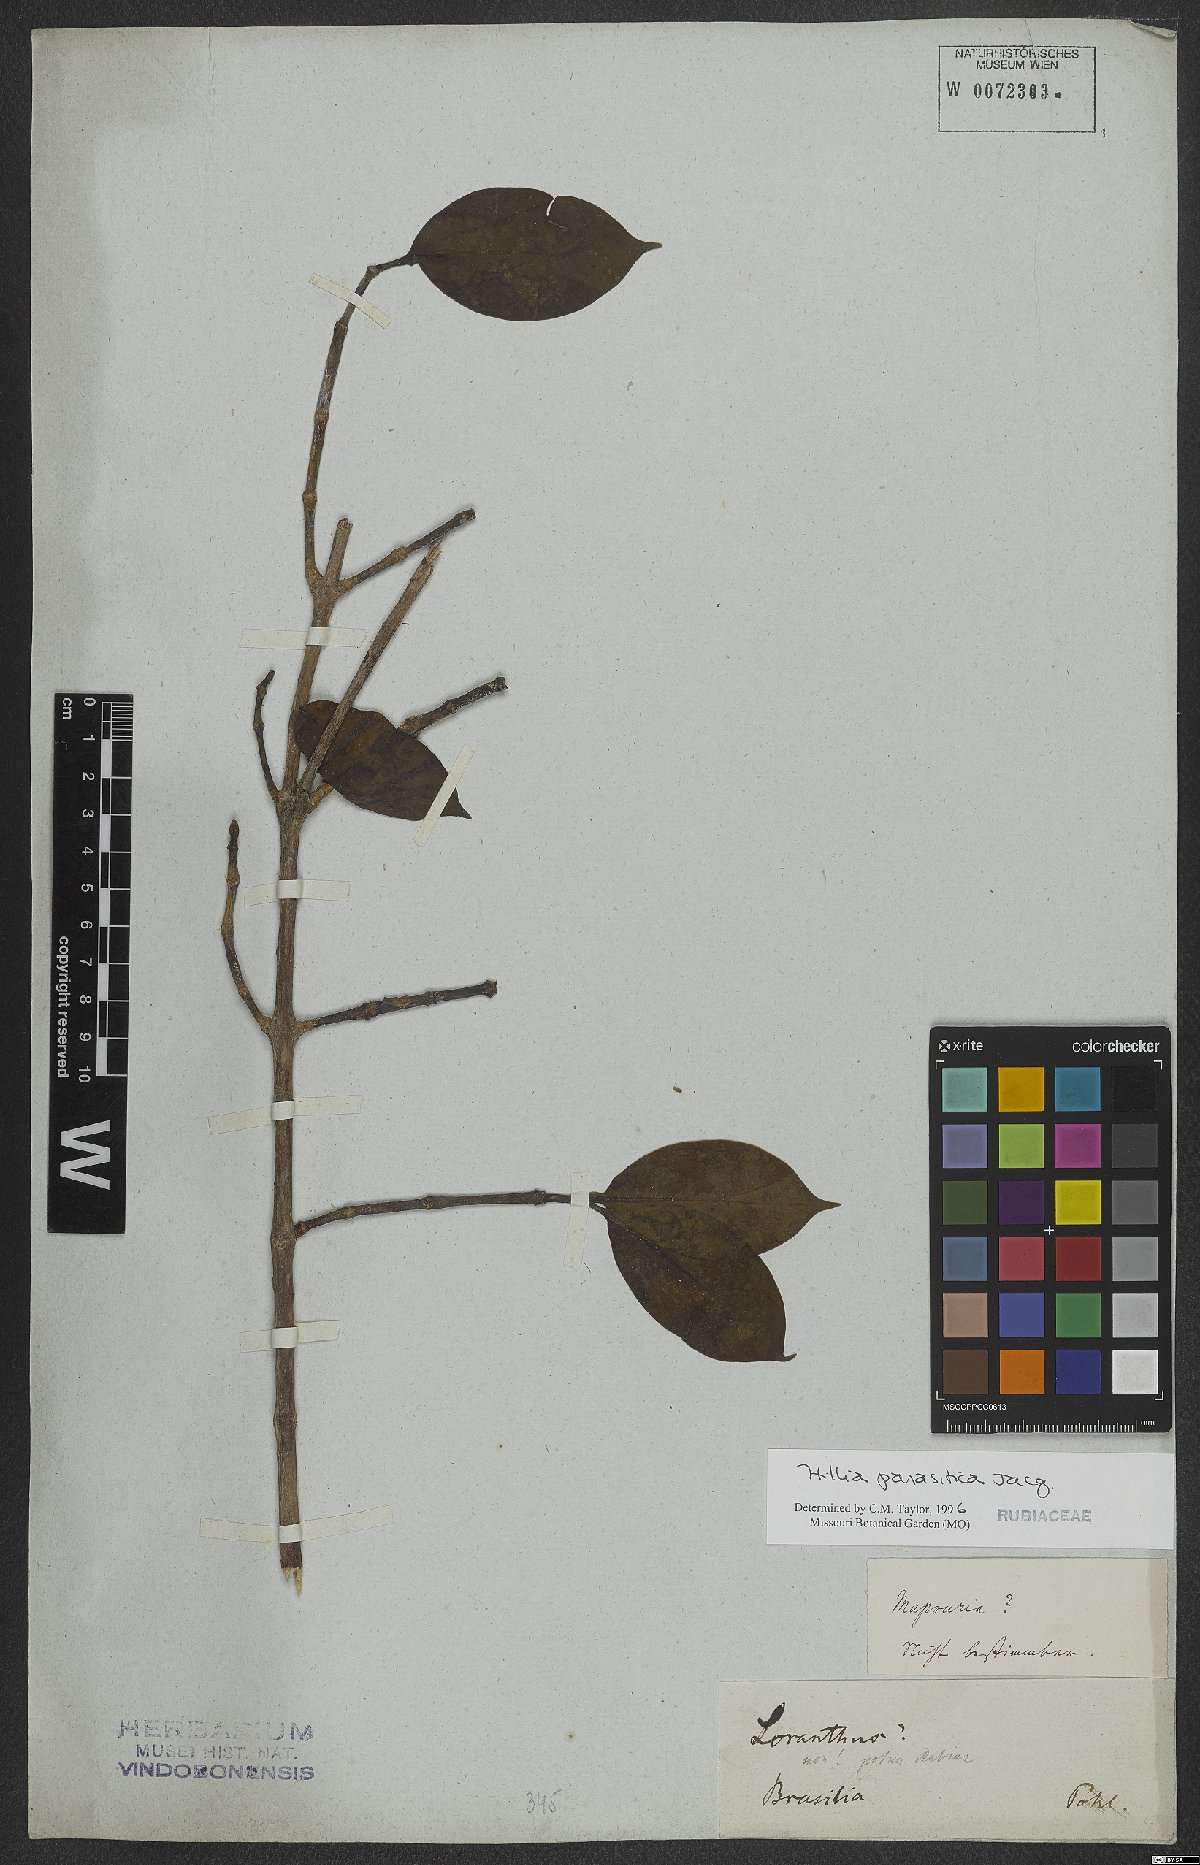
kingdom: Plantae
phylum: Tracheophyta
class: Magnoliopsida
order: Gentianales
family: Rubiaceae
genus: Hillia
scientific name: Hillia parasitica
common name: Morning star
